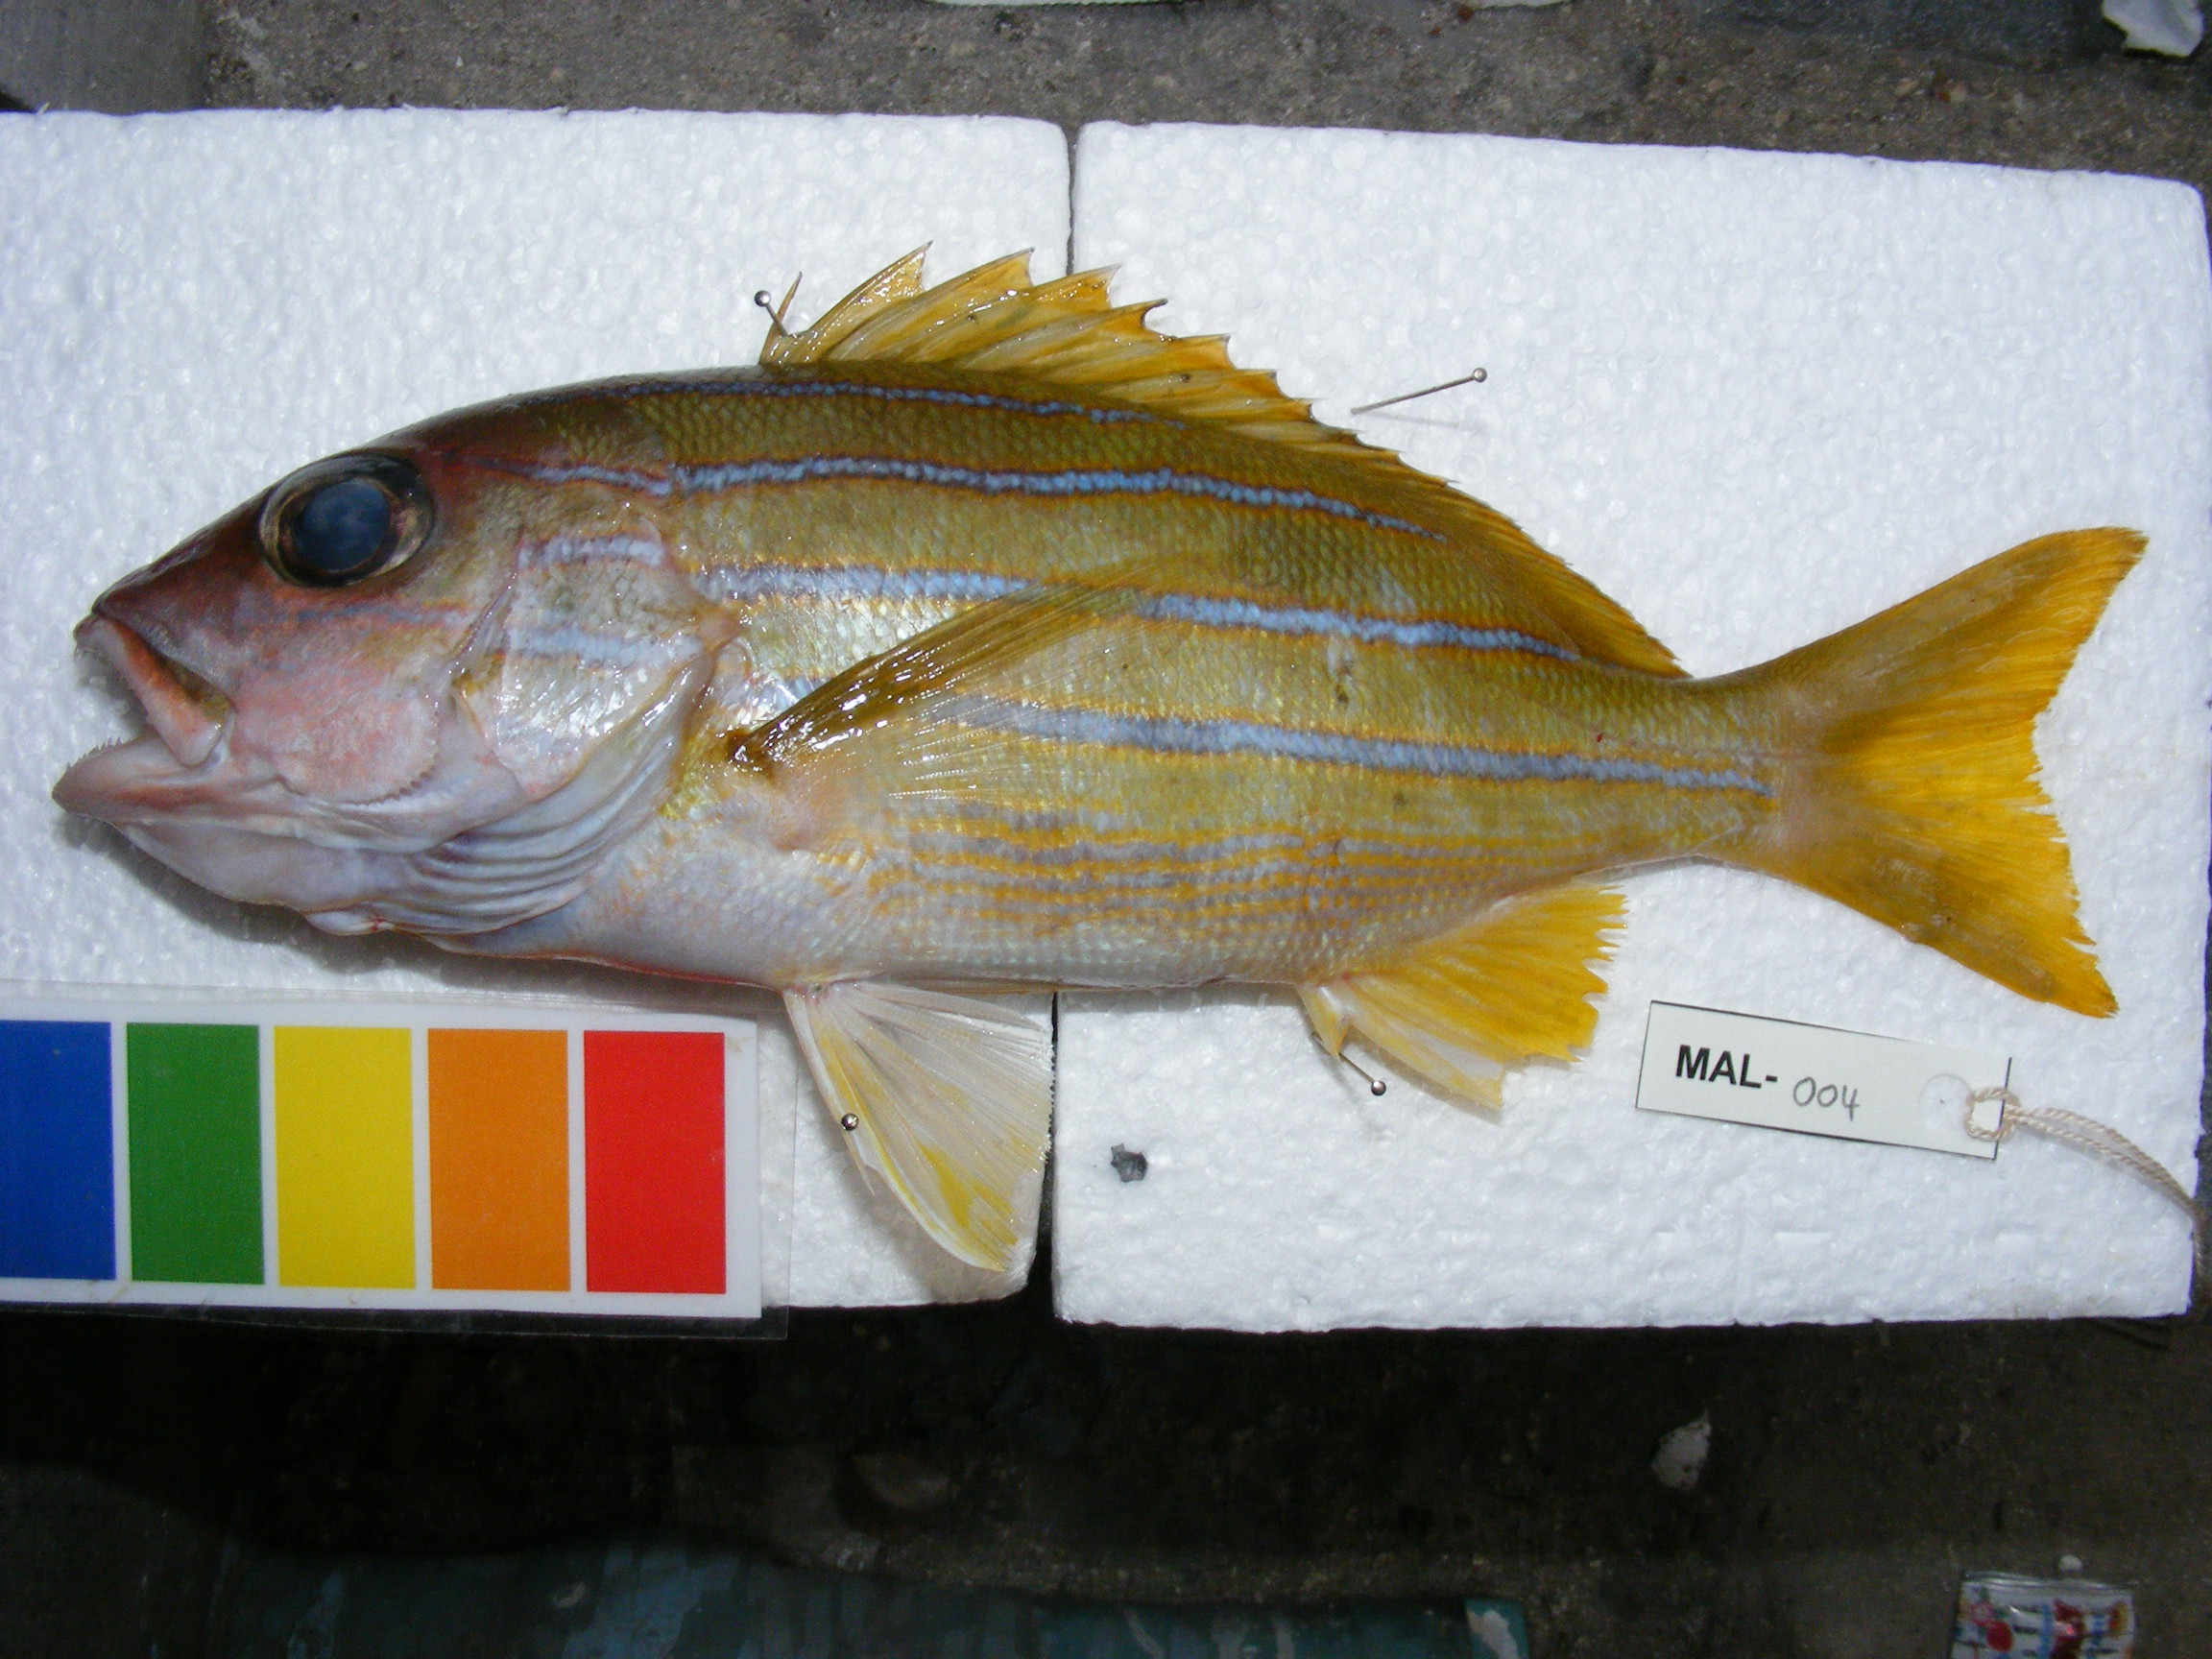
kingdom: Animalia
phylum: Chordata
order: Perciformes
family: Lutjanidae
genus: Lutjanus
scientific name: Lutjanus kasmira
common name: Common bluestripe snapper
